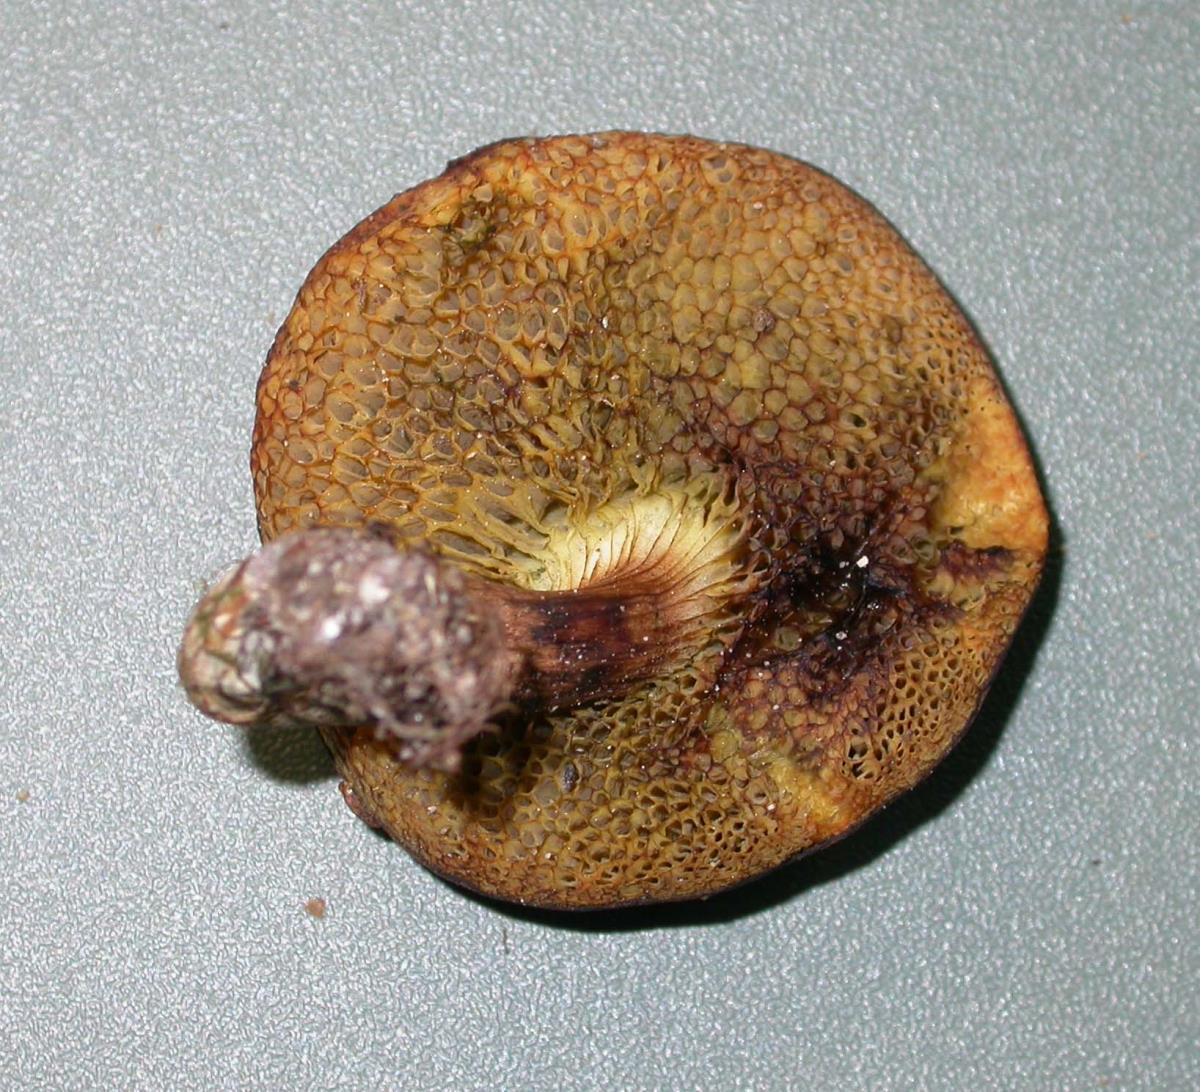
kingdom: Fungi
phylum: Basidiomycota
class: Agaricomycetes
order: Boletales
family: Boletaceae
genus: Xerocomus
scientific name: Xerocomus squamulosus
